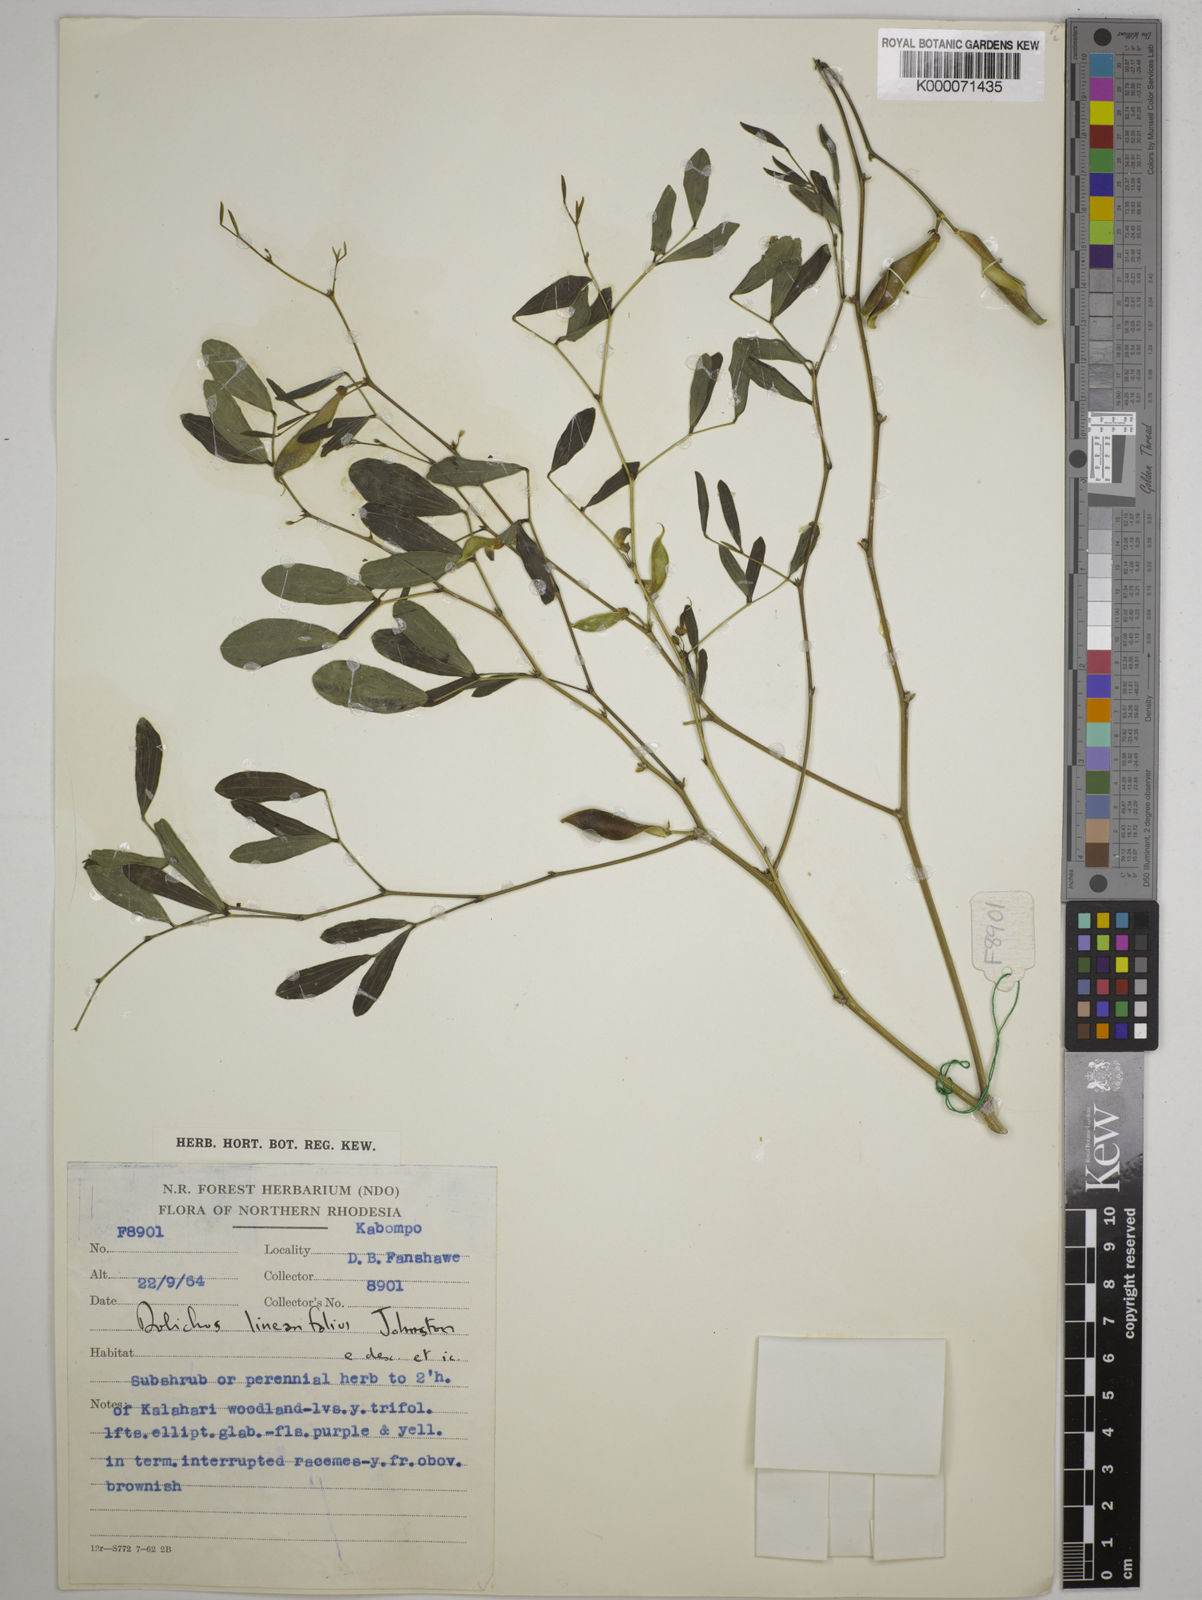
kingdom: Plantae
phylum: Tracheophyta
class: Magnoliopsida
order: Fabales
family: Fabaceae
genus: Dolichos
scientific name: Dolichos linearifolius
